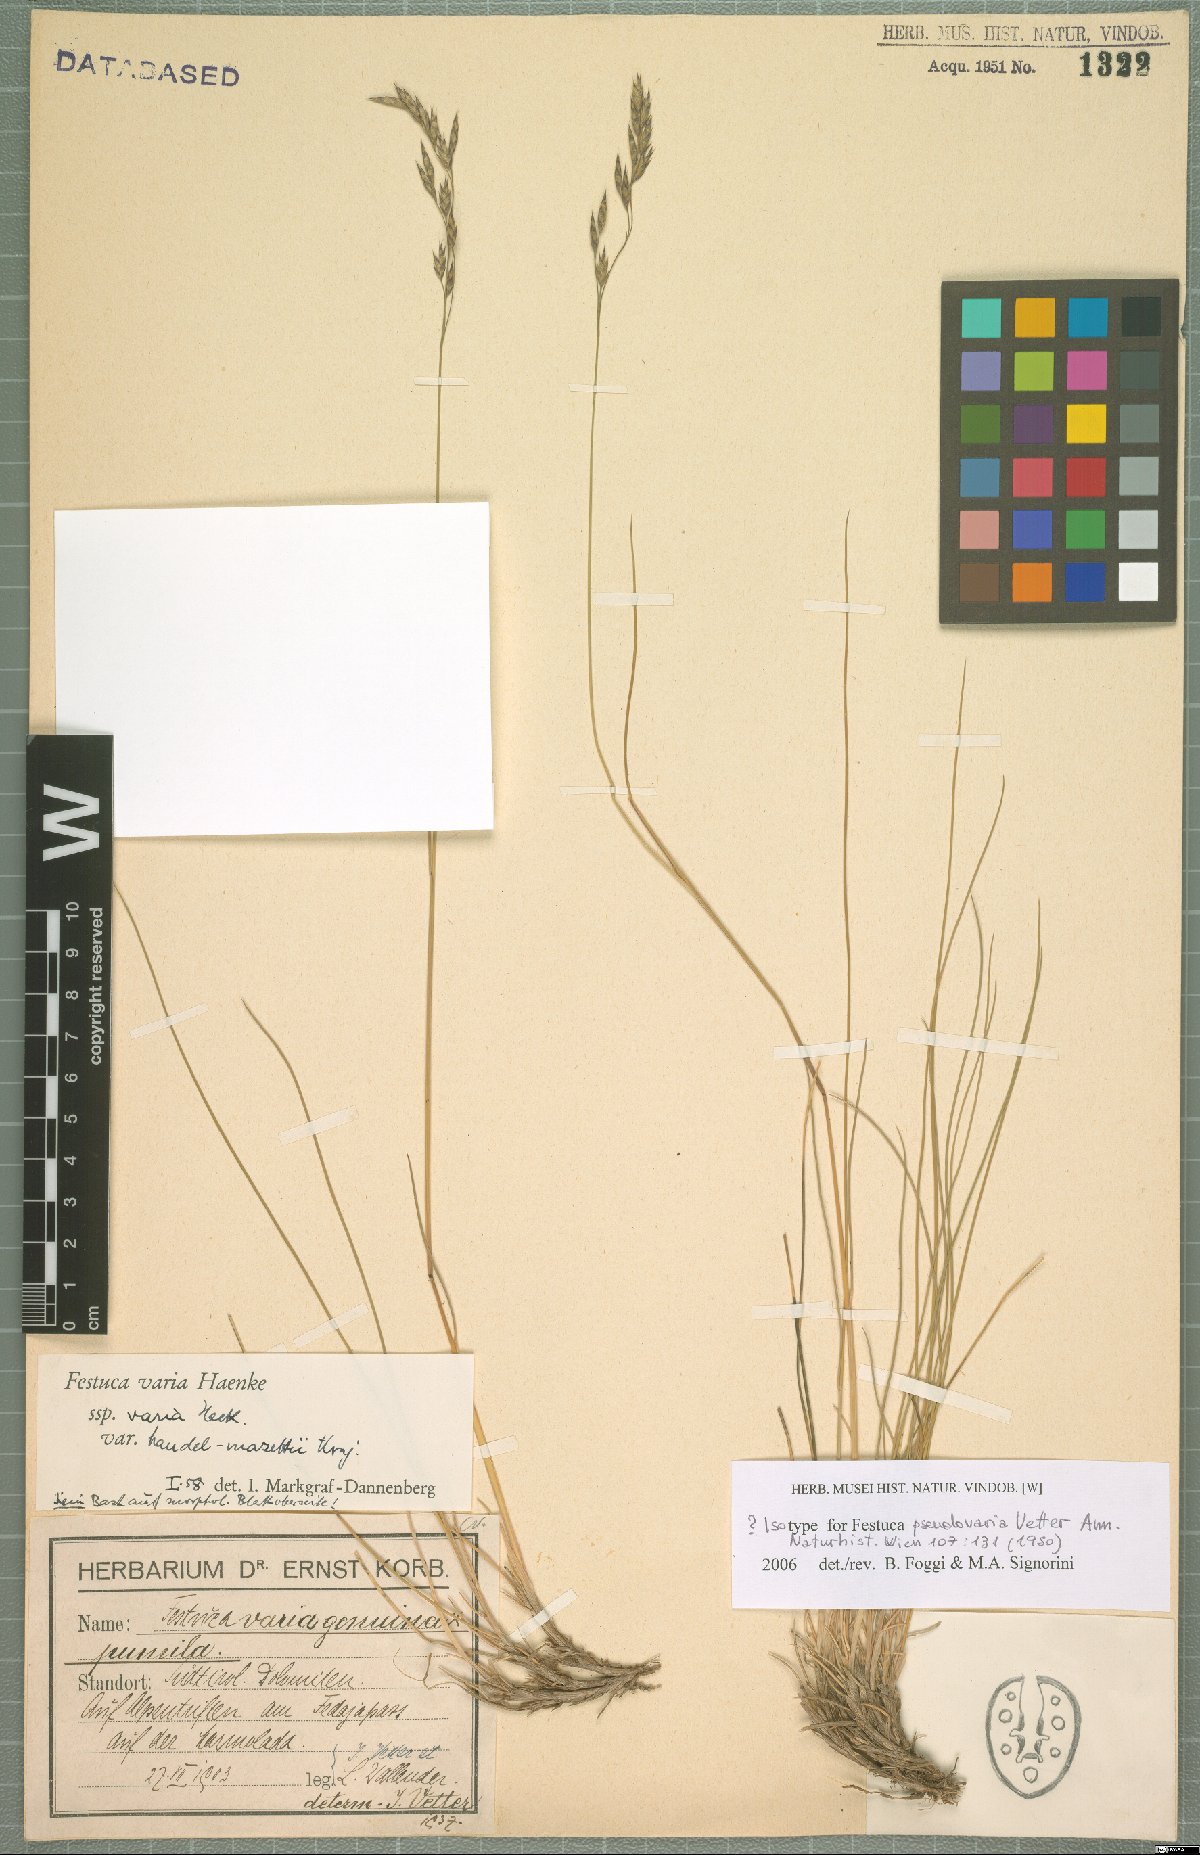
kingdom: Plantae
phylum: Tracheophyta
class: Liliopsida
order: Poales
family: Poaceae
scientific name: Poaceae
